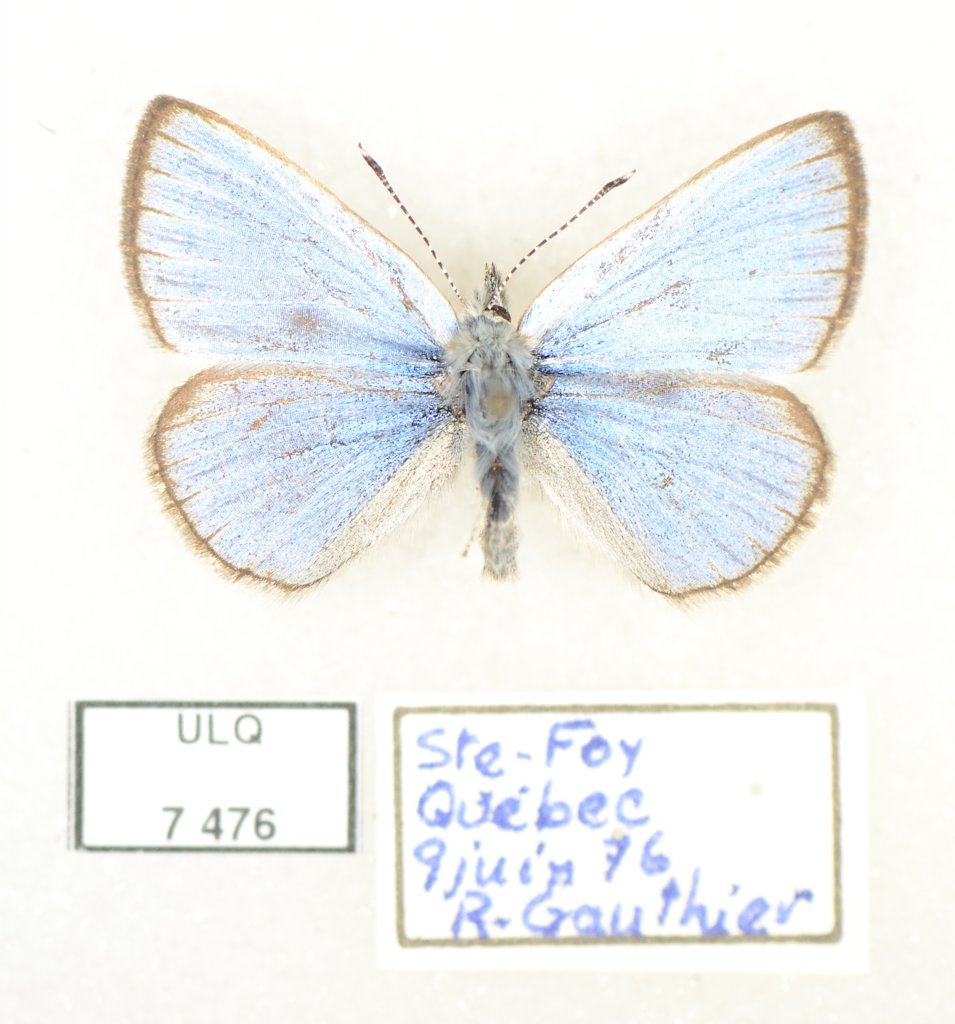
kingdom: Animalia
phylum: Arthropoda
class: Insecta
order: Lepidoptera
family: Lycaenidae
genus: Glaucopsyche
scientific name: Glaucopsyche lygdamus
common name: Silvery Blue
